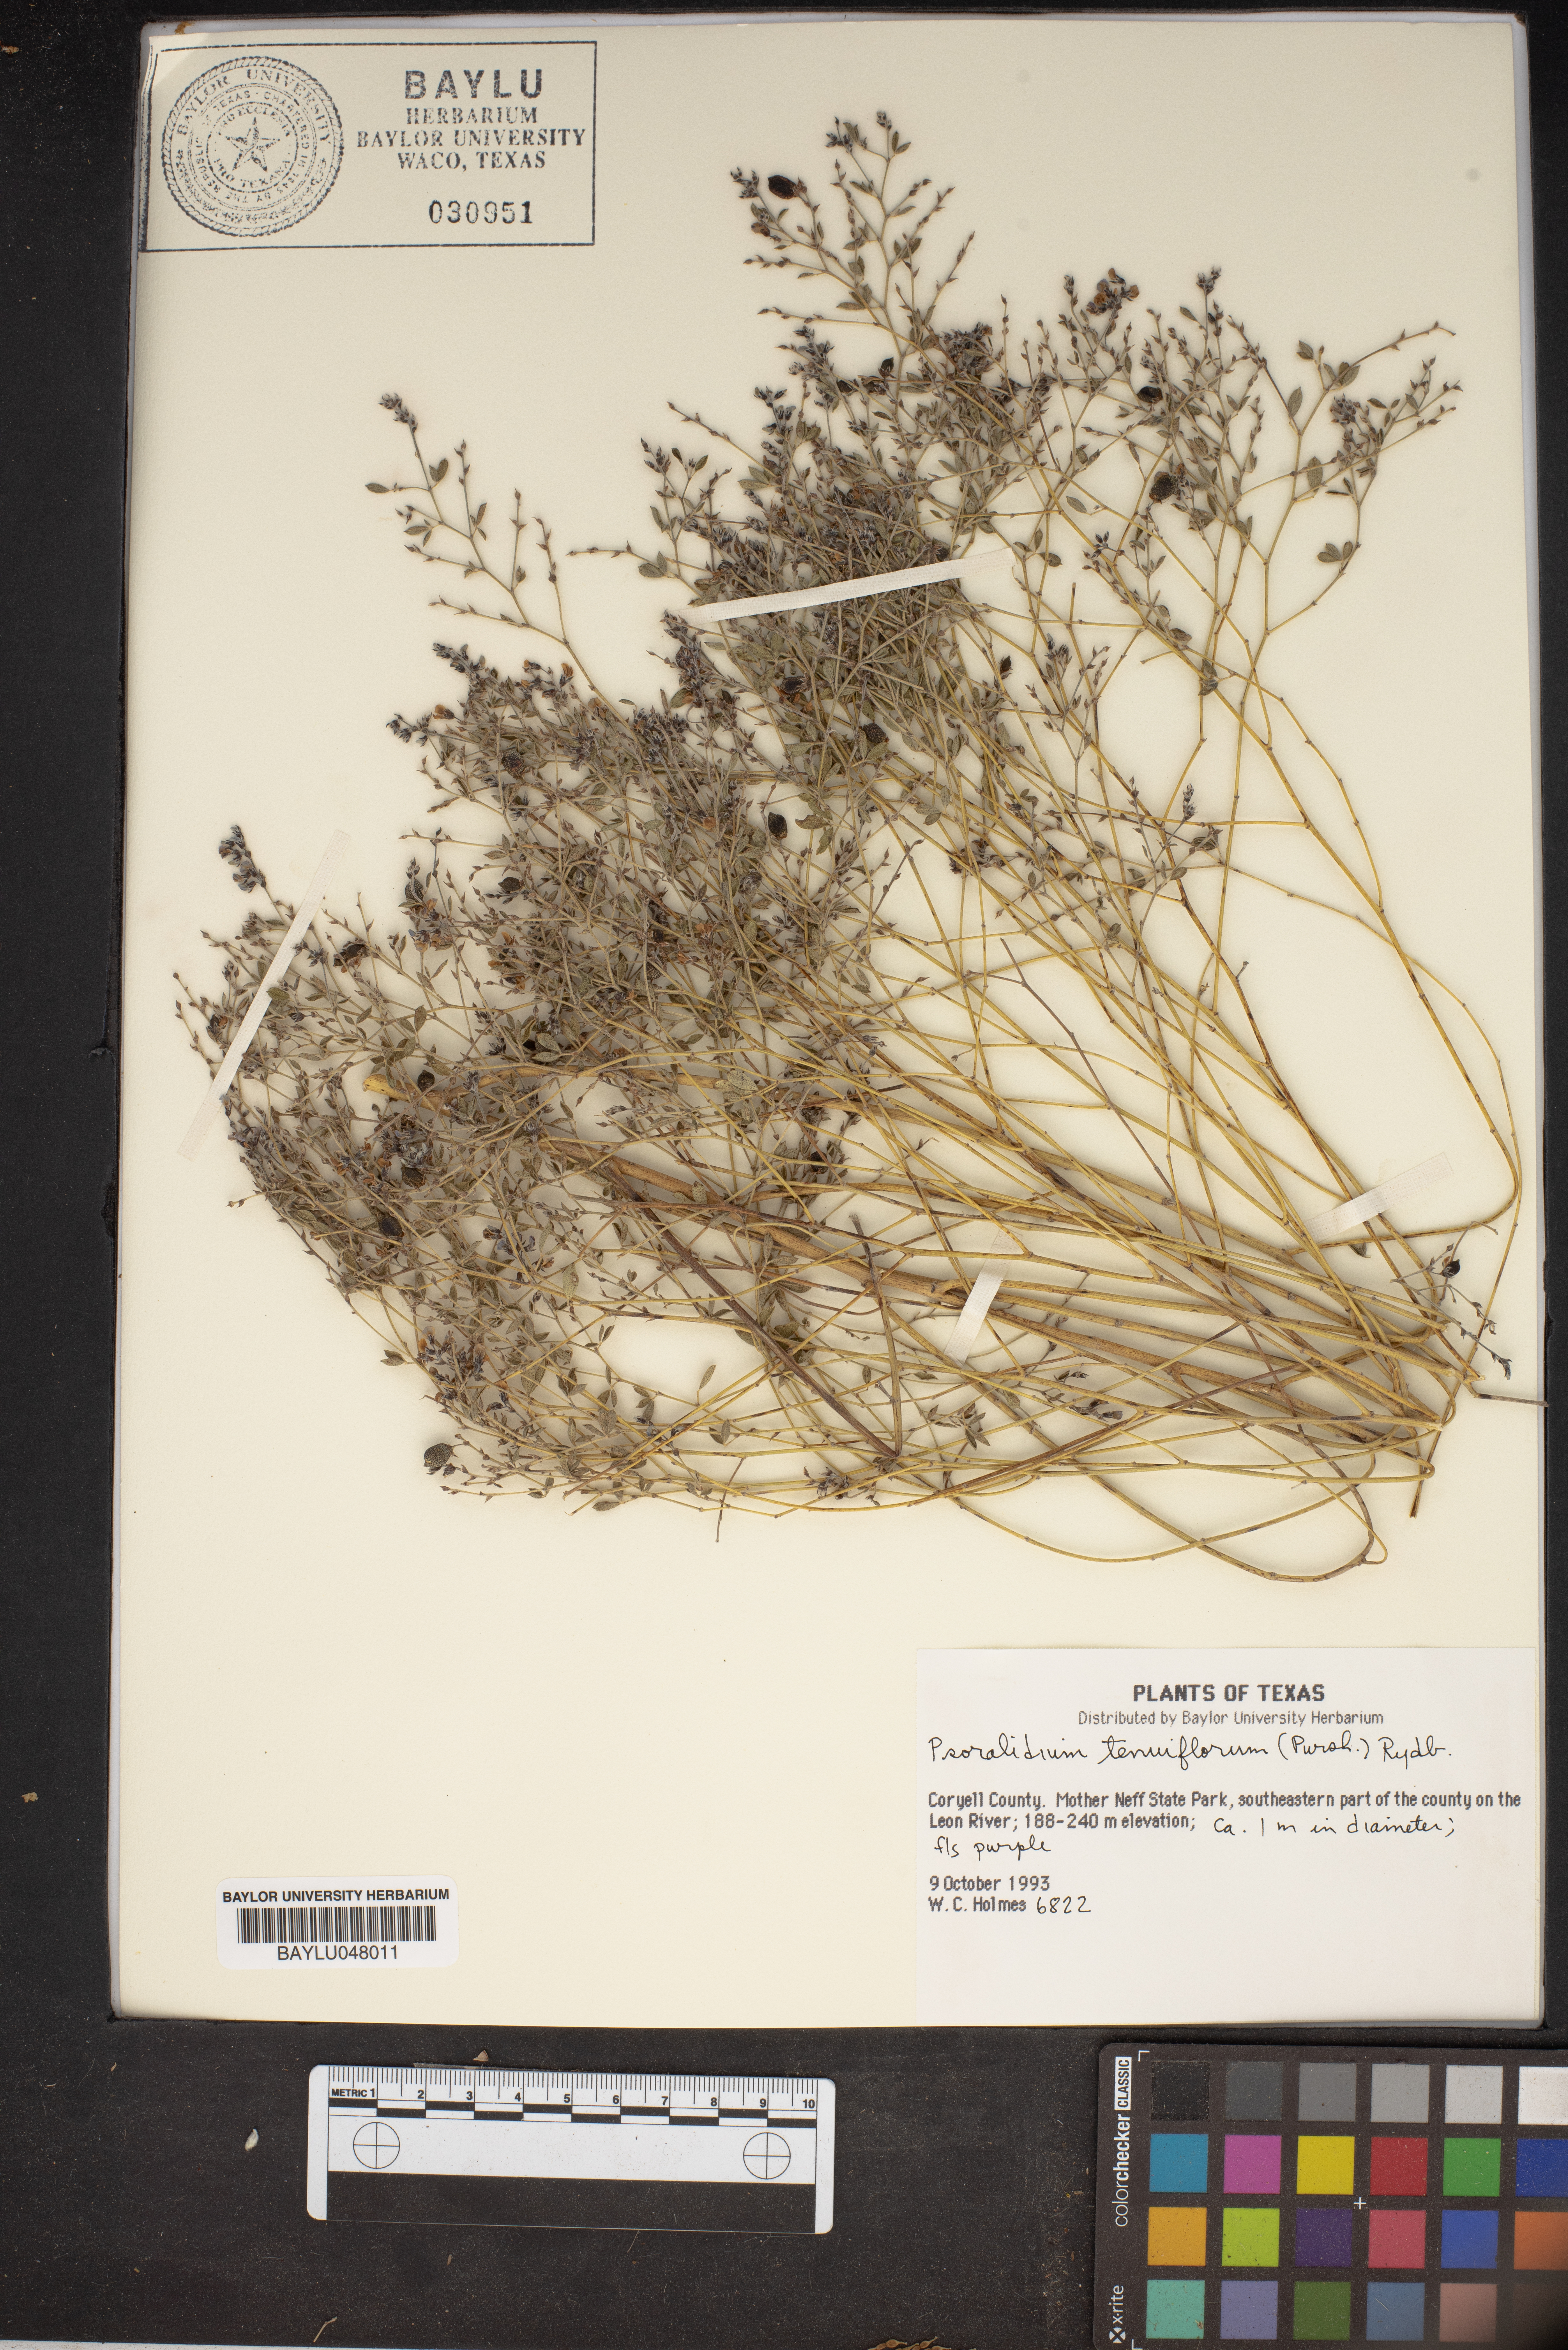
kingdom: Plantae
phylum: Tracheophyta
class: Magnoliopsida
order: Fabales
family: Fabaceae
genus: Pediomelum
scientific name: Pediomelum tenuiflorum
